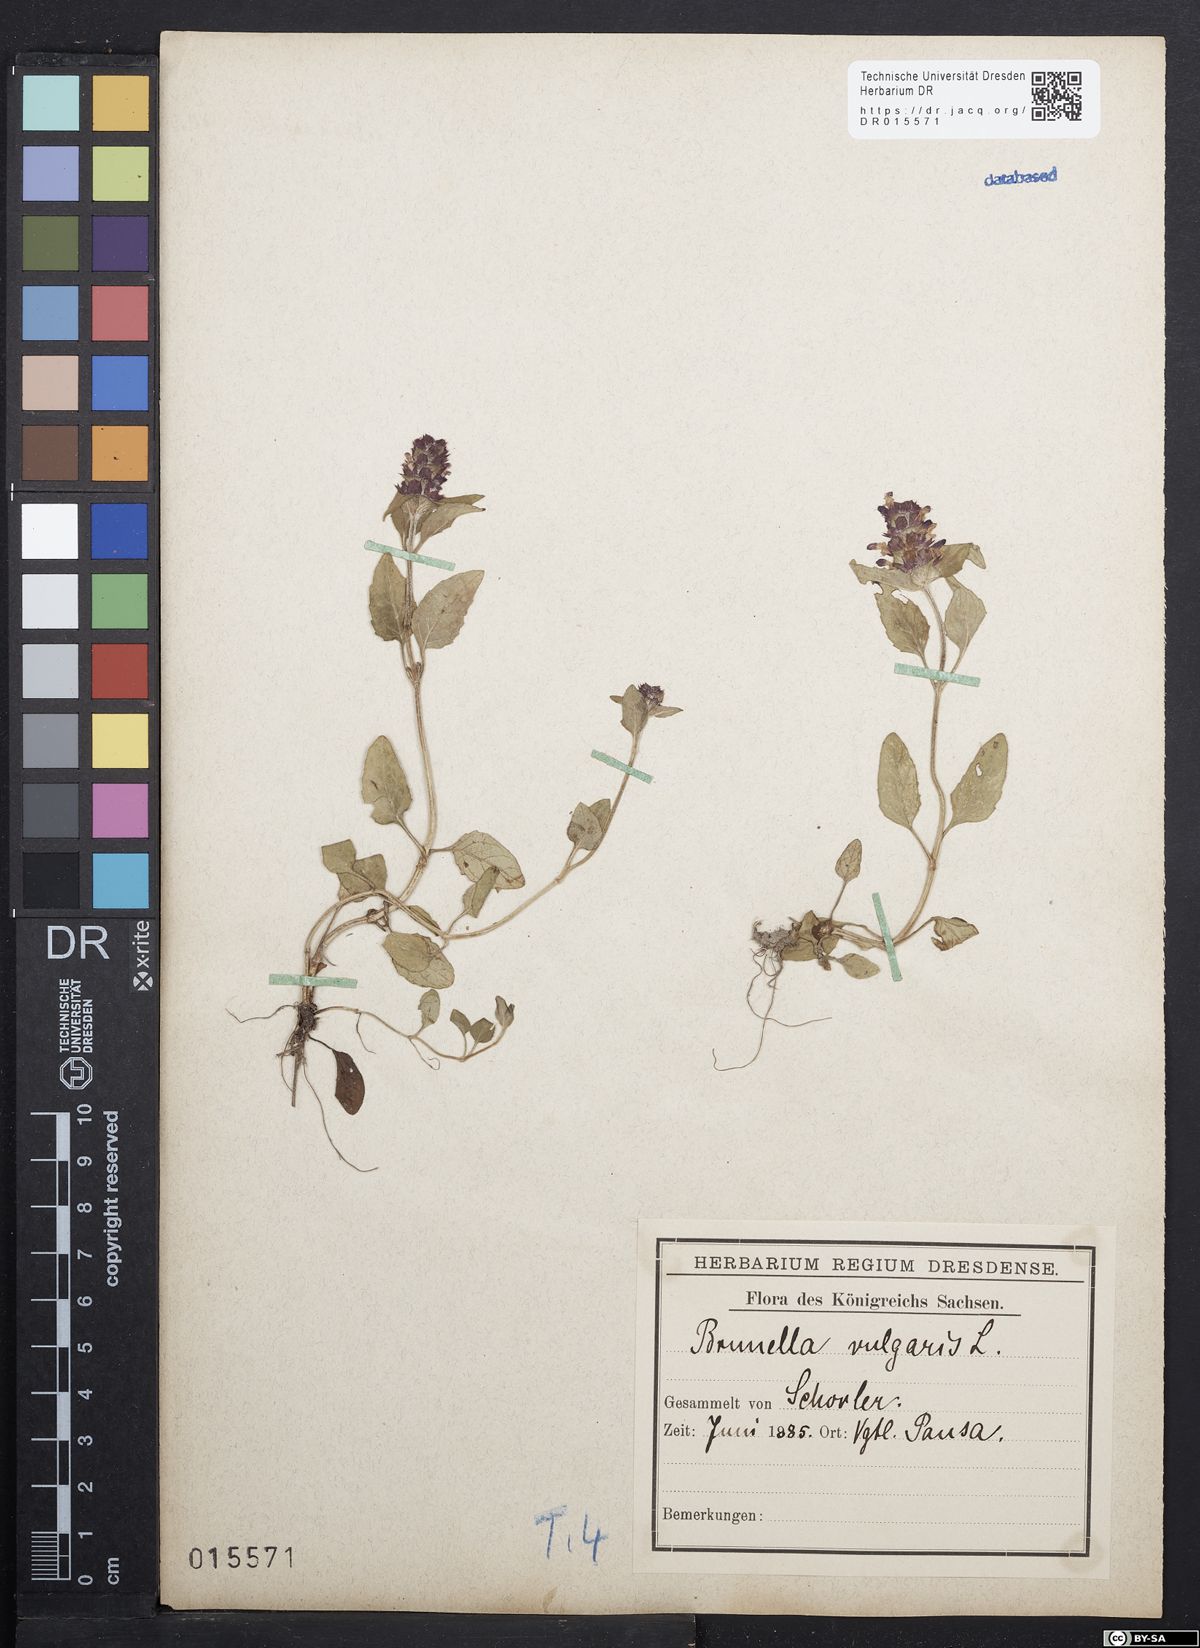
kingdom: Plantae
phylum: Tracheophyta
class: Magnoliopsida
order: Lamiales
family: Lamiaceae
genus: Prunella
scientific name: Prunella vulgaris
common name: Heal-all
